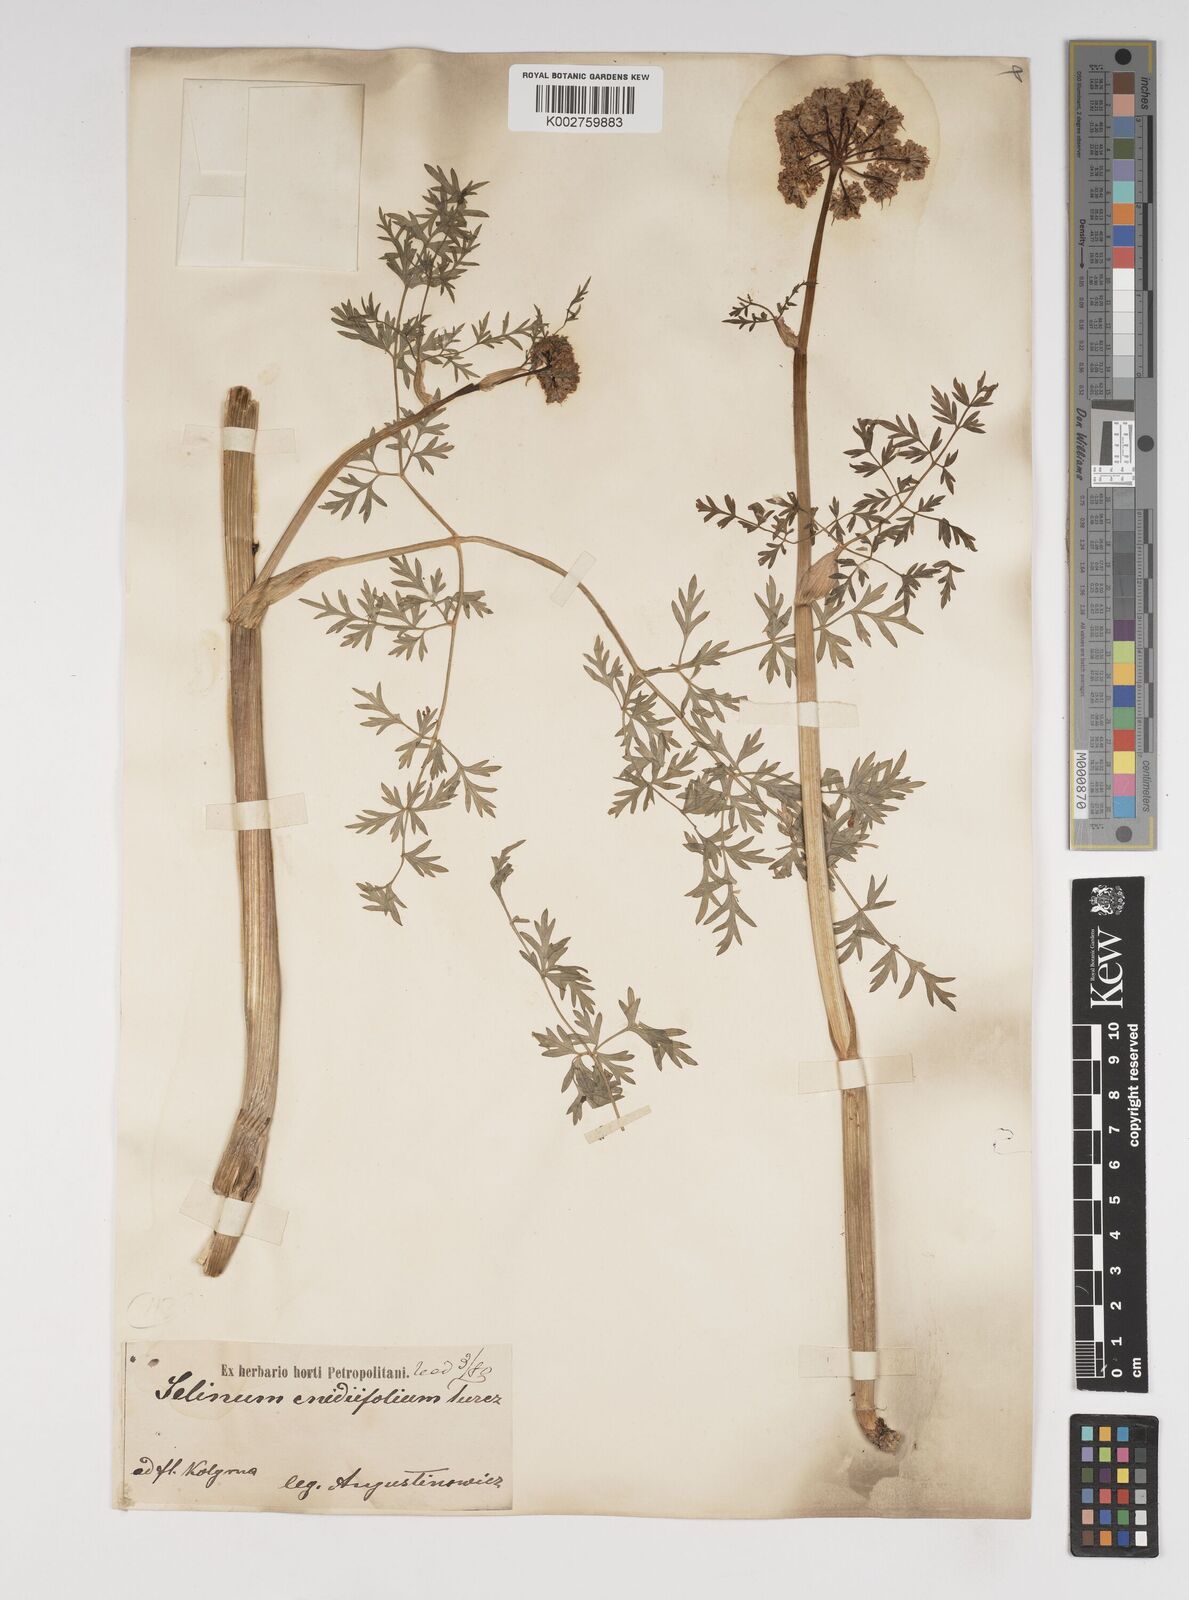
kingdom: Plantae
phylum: Tracheophyta
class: Magnoliopsida
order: Apiales
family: Apiaceae
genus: Cnidium
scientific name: Cnidium cnidiifolium
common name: Northern hemlock-parsley
